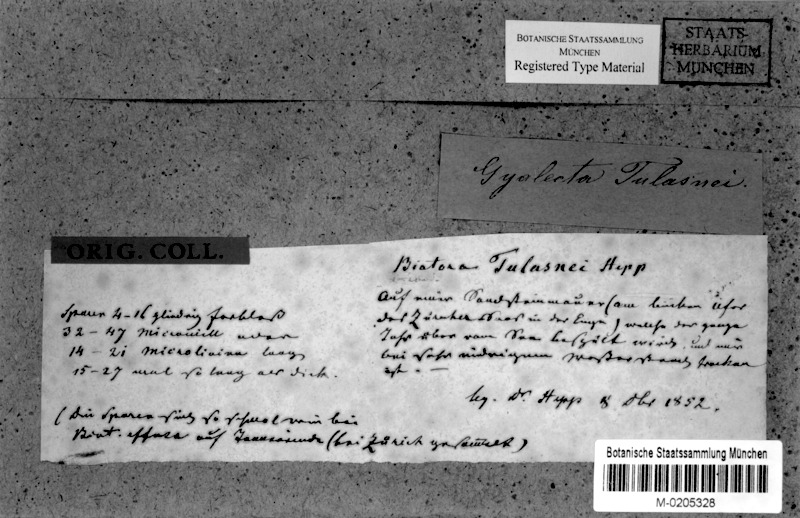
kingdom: Fungi
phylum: Ascomycota
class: Lecanoromycetes
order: Lecanorales
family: Ramalinaceae
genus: Bacidina
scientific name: Bacidina inundata
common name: Wet dot lichen
